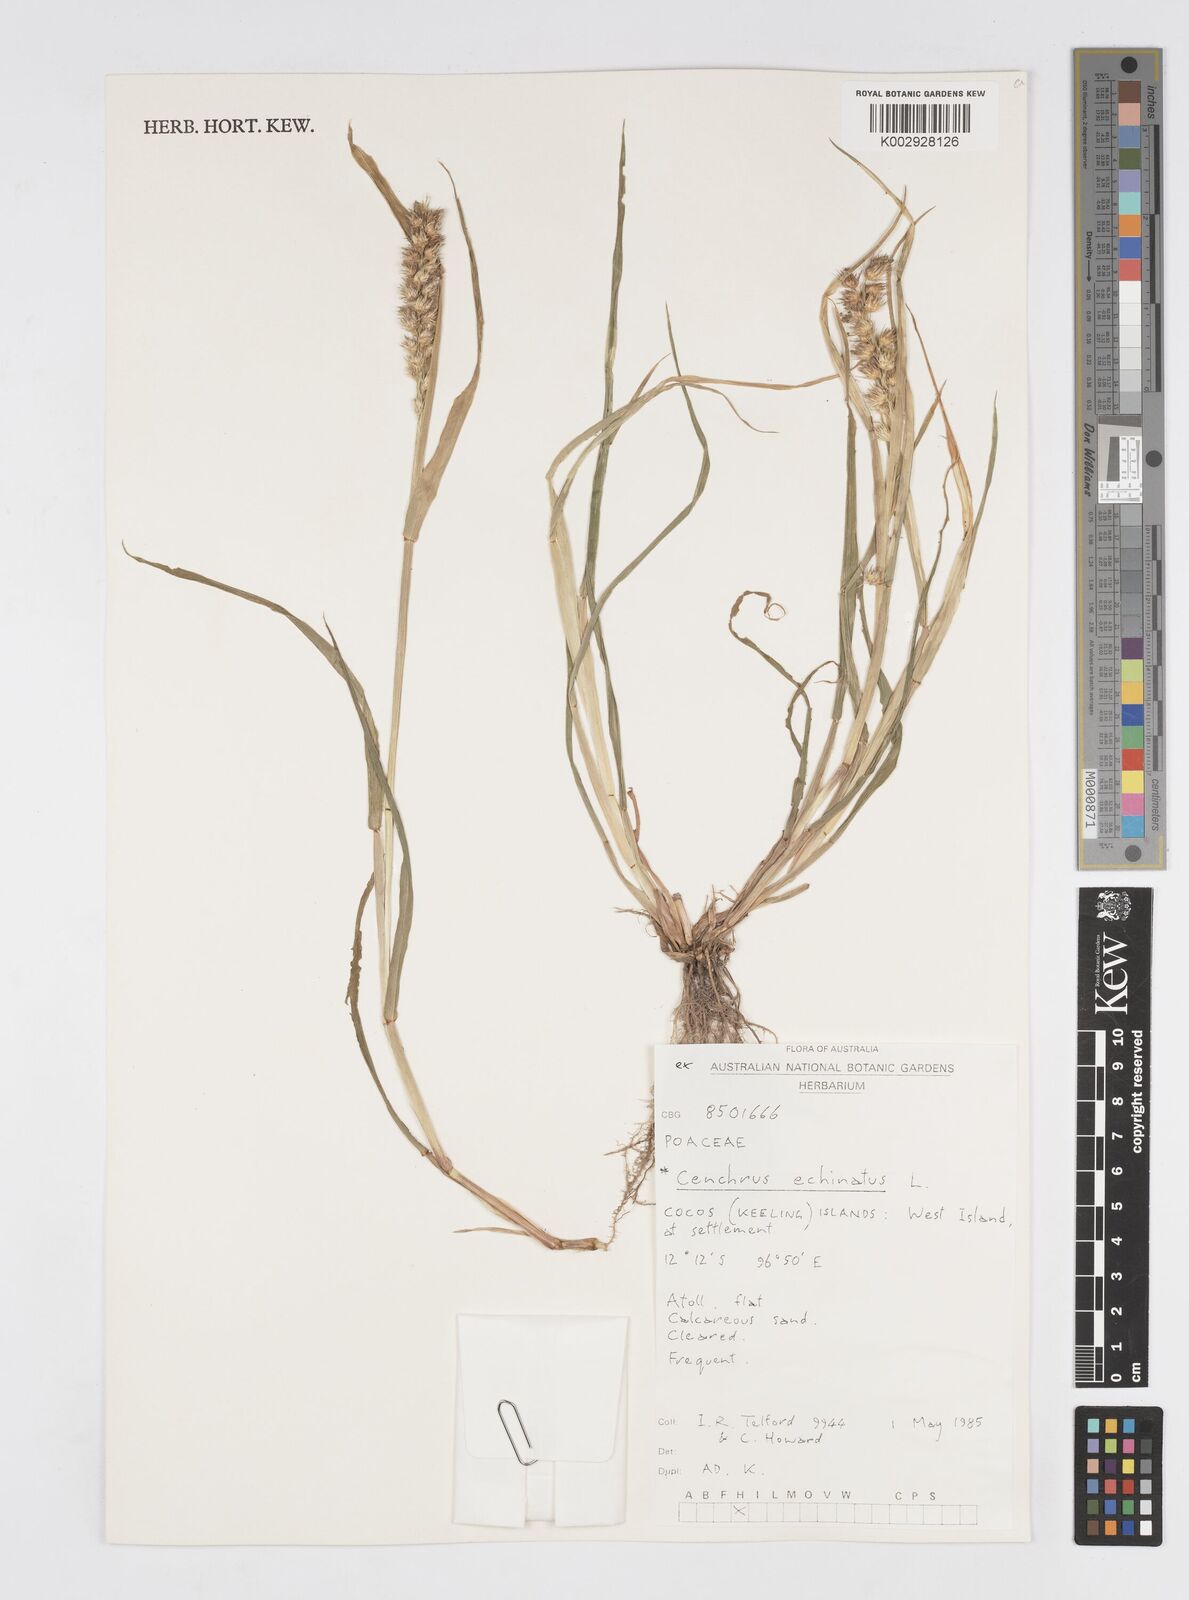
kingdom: Plantae
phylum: Tracheophyta
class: Liliopsida
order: Poales
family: Poaceae
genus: Cenchrus
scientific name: Cenchrus echinatus
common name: Southern sandbur
